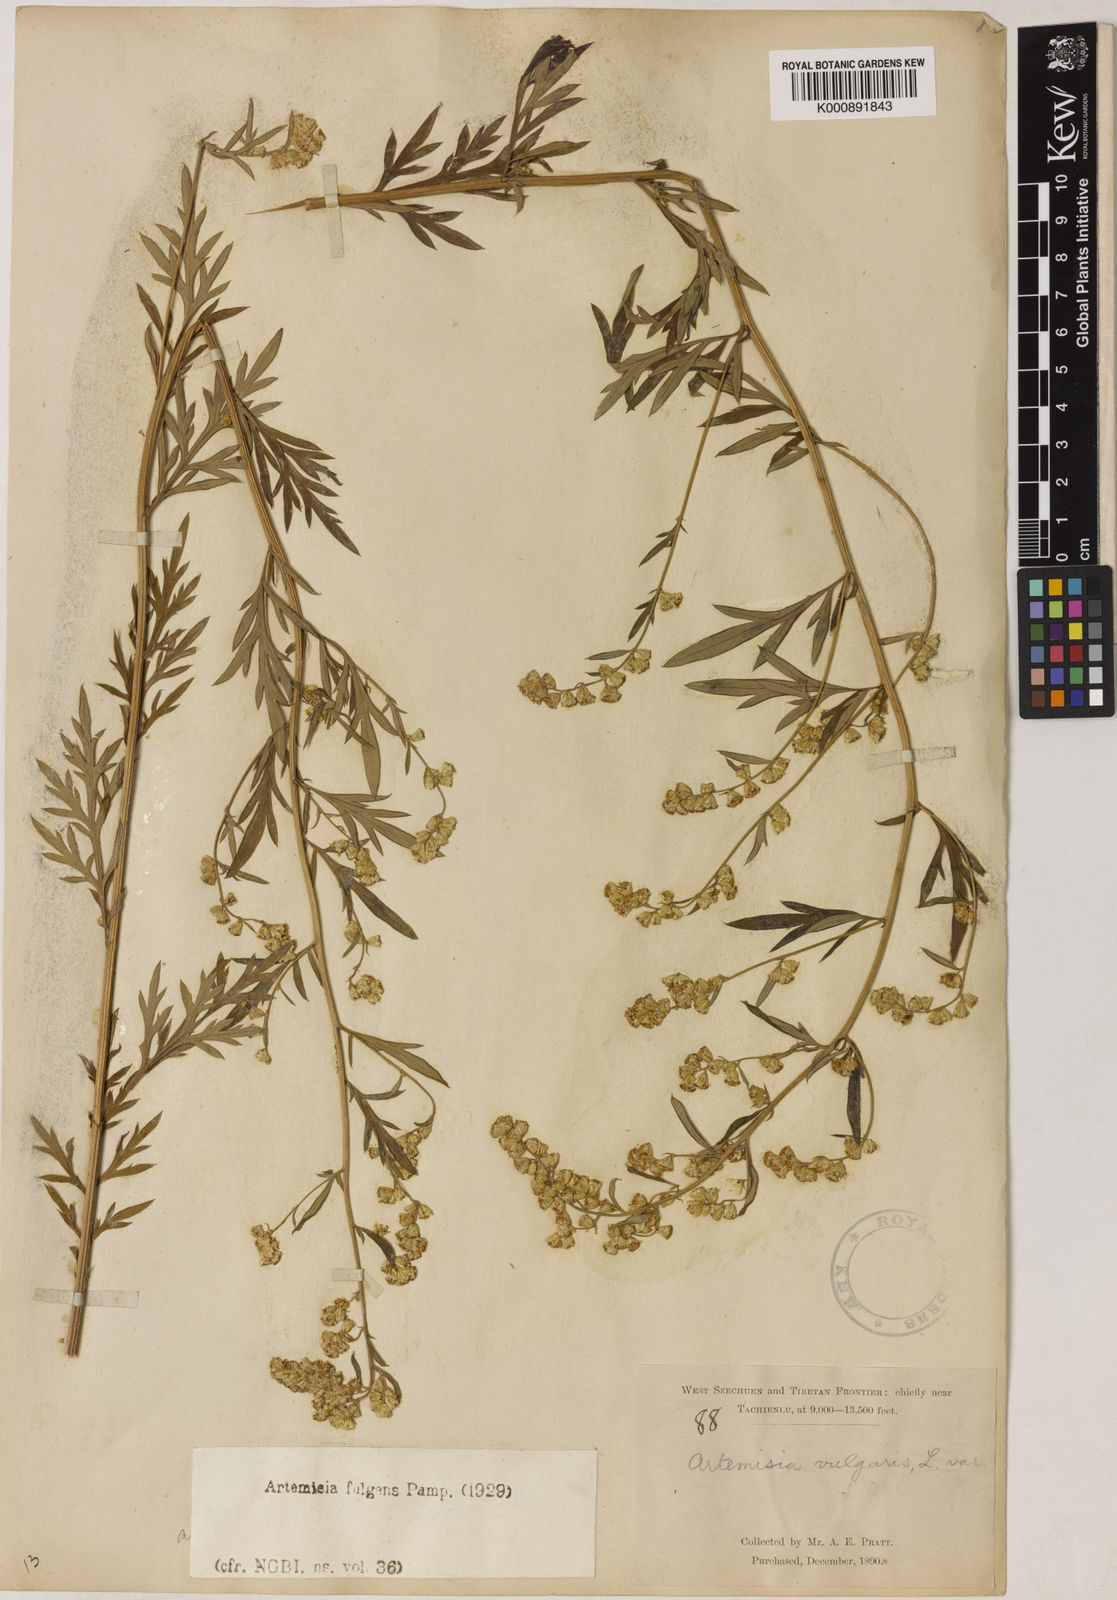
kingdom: Plantae
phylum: Tracheophyta
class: Magnoliopsida
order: Asterales
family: Asteraceae
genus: Artemisia
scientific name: Artemisia fulgens
